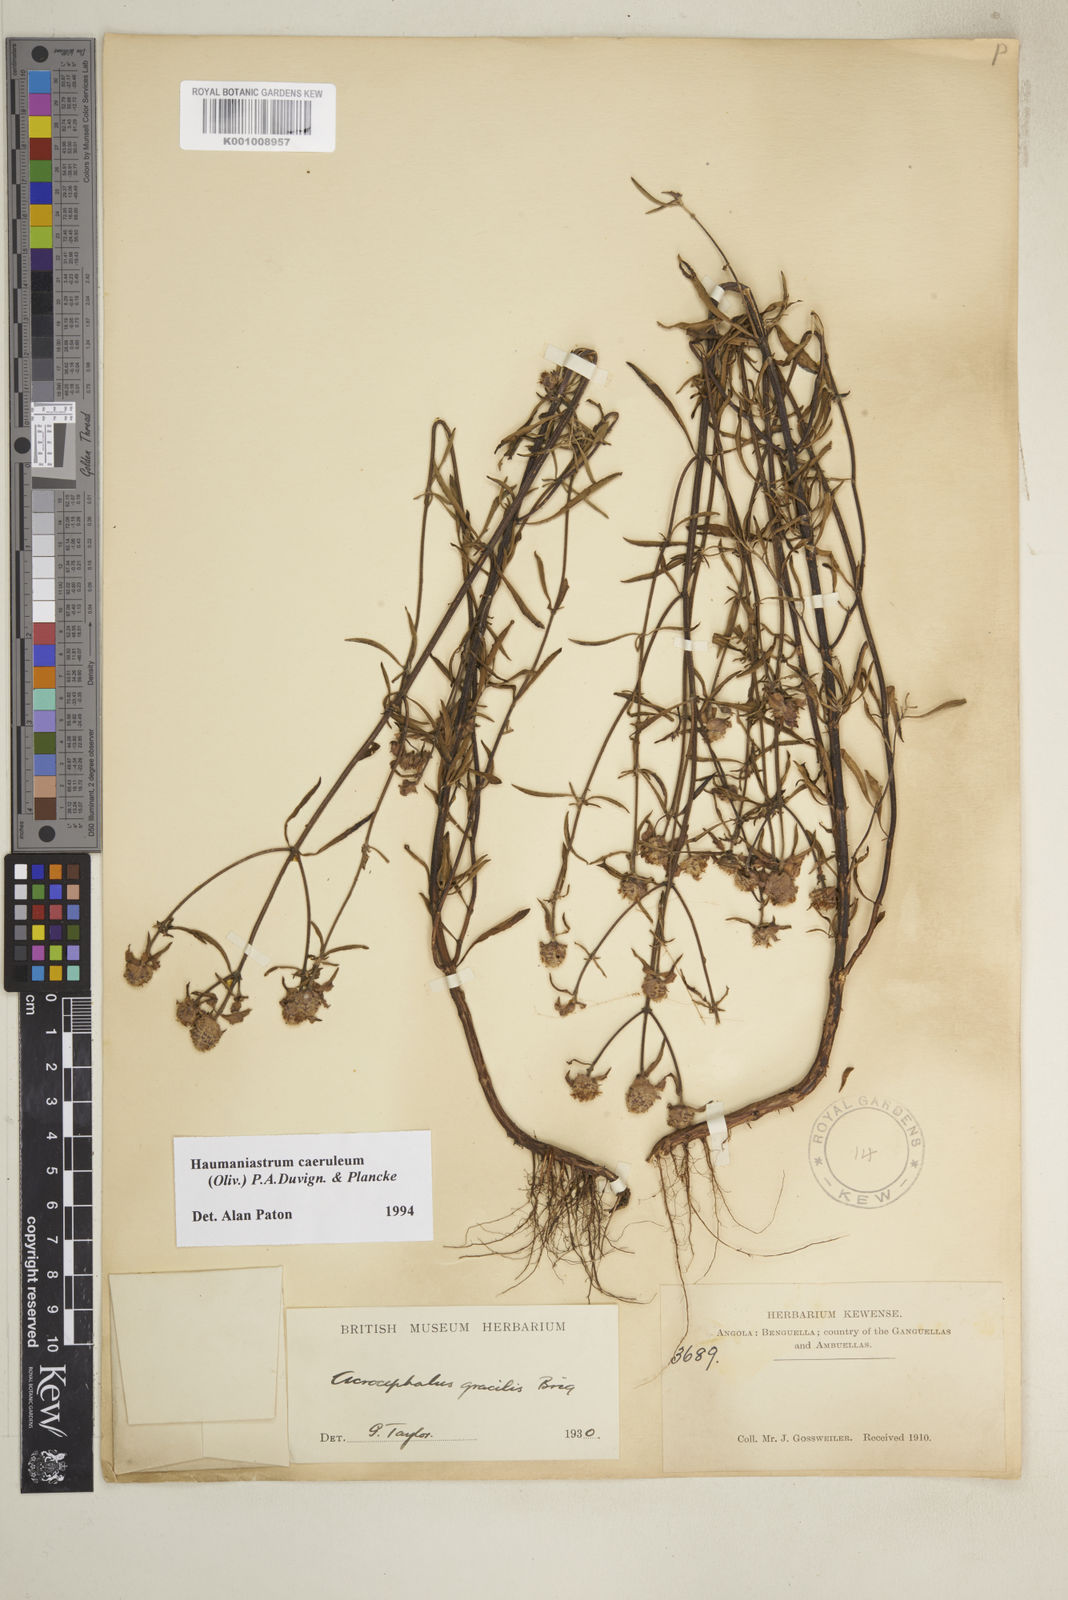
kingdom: Plantae
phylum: Tracheophyta
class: Magnoliopsida
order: Lamiales
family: Lamiaceae
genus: Haumaniastrum
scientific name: Haumaniastrum caeruleum
